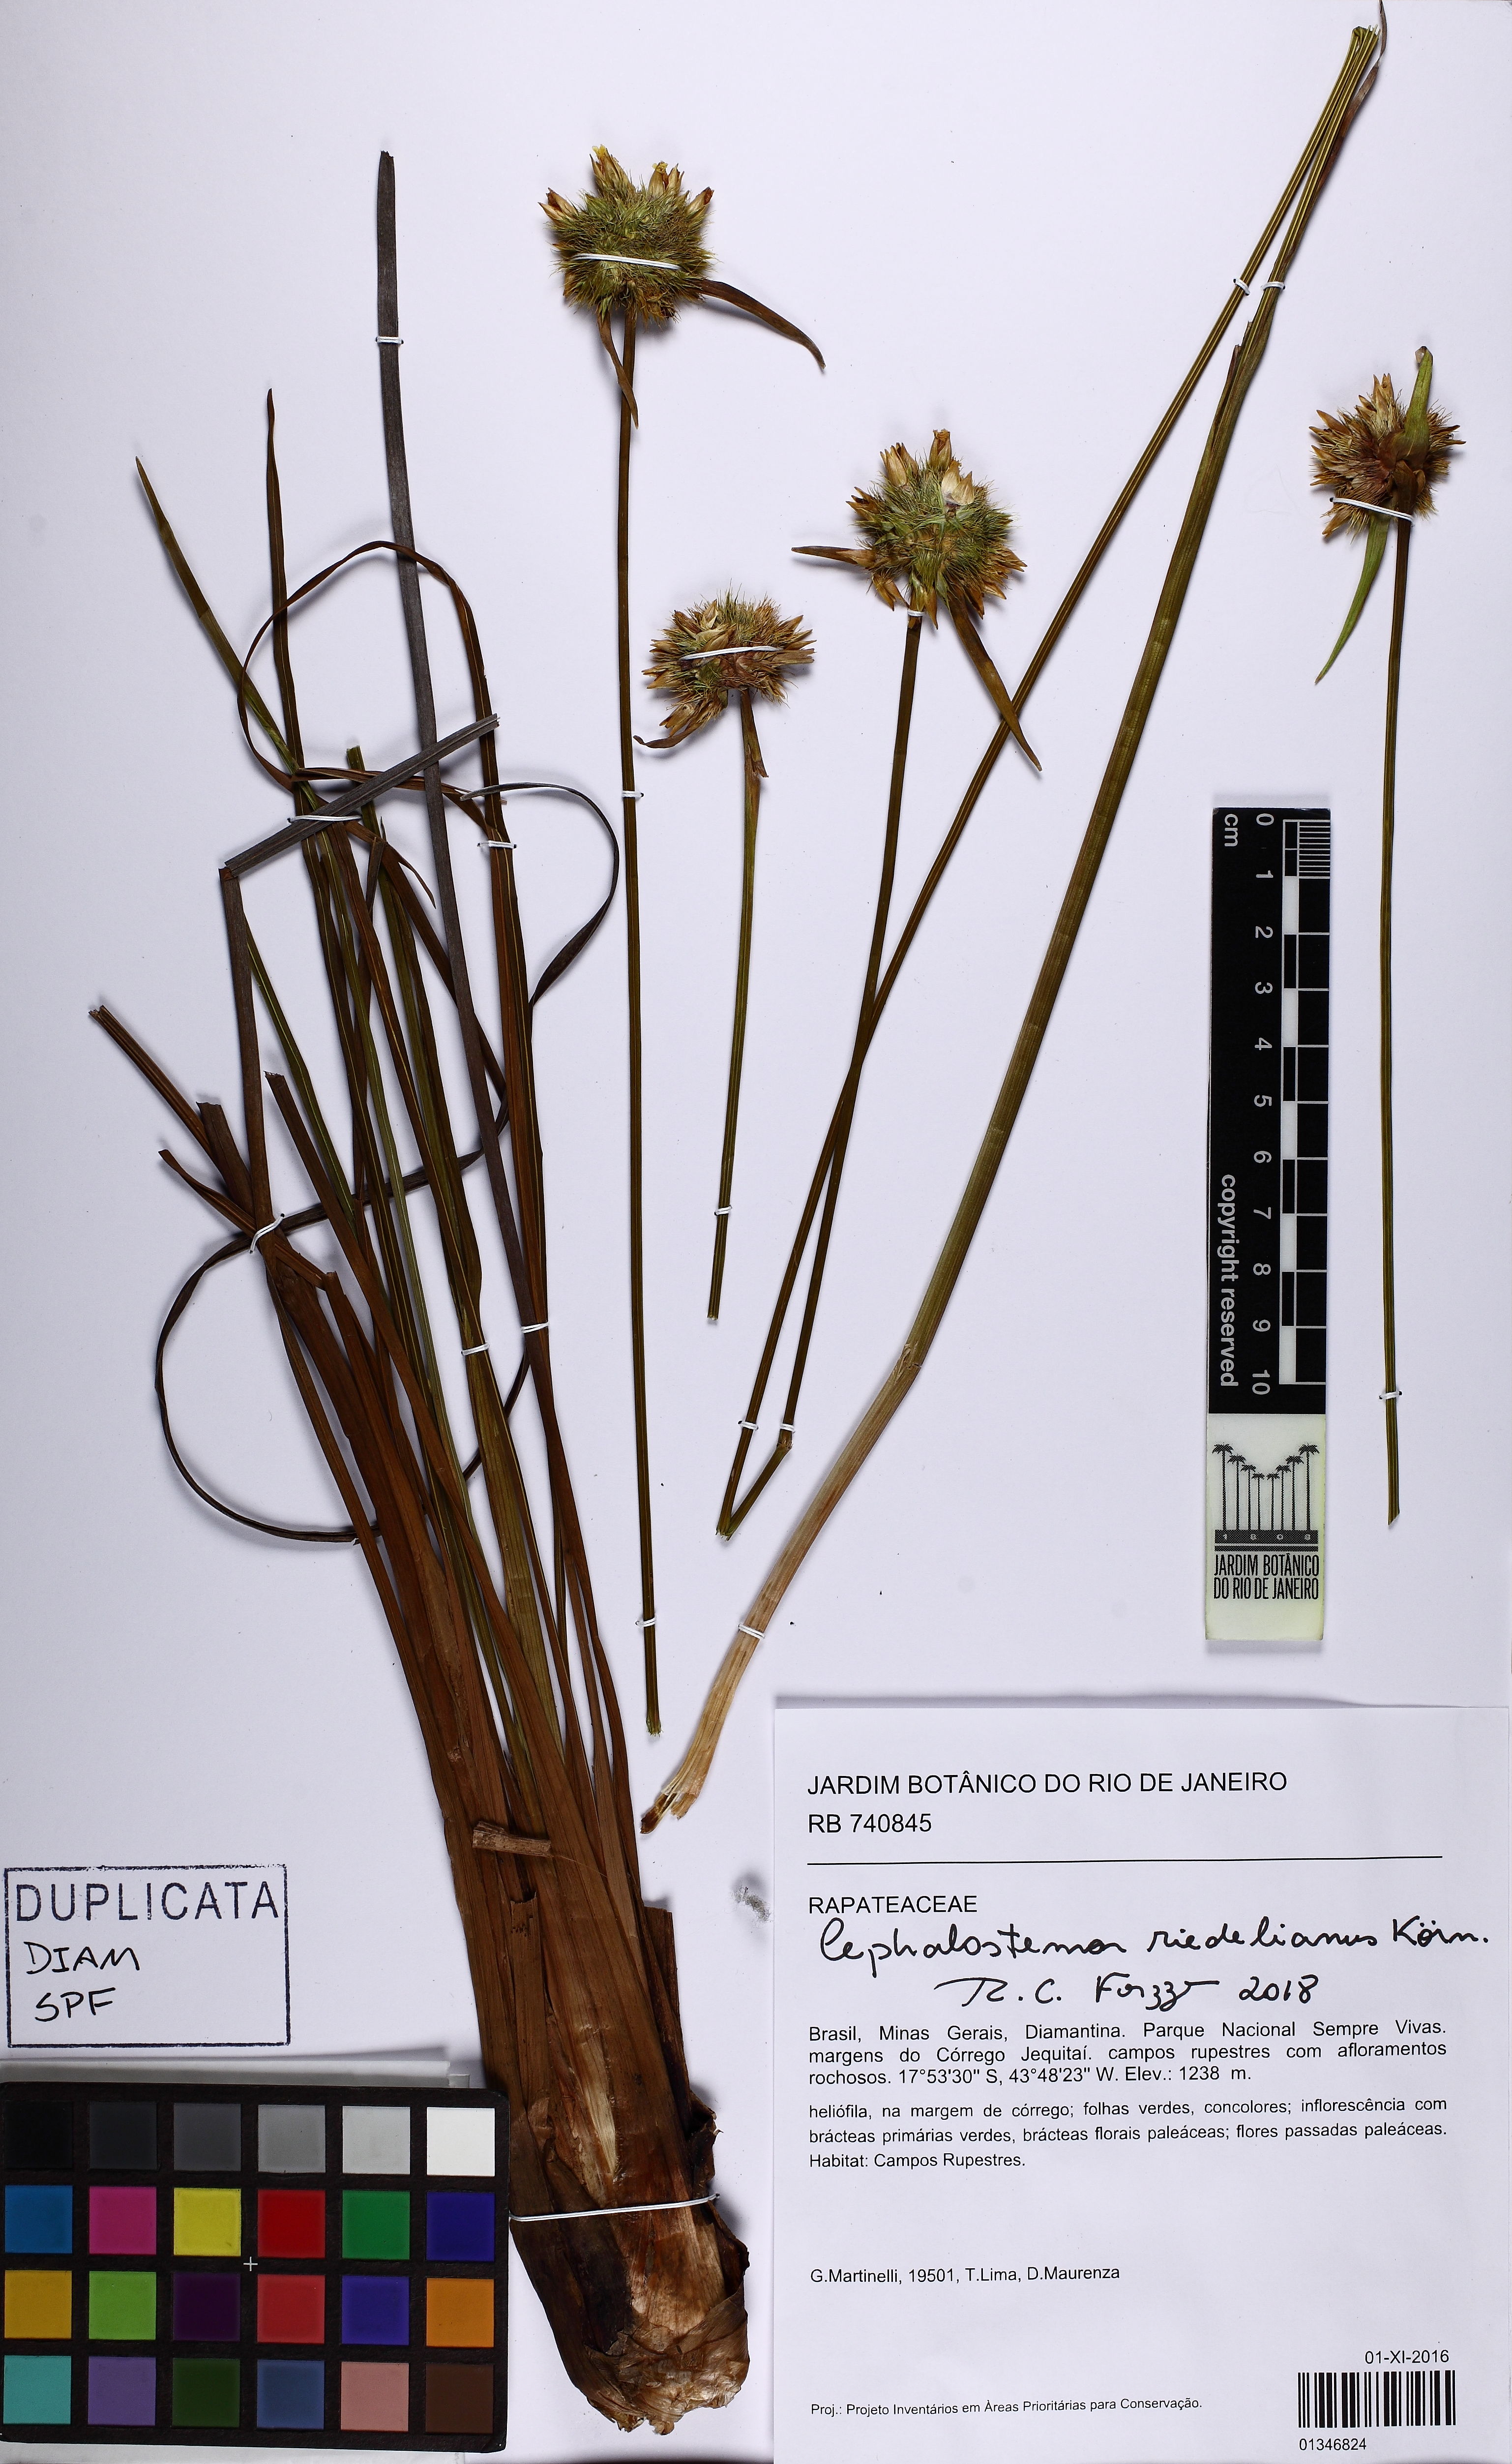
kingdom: Plantae
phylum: Tracheophyta
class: Liliopsida
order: Poales
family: Rapateaceae
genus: Cephalostemon
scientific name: Cephalostemon riedelianus
